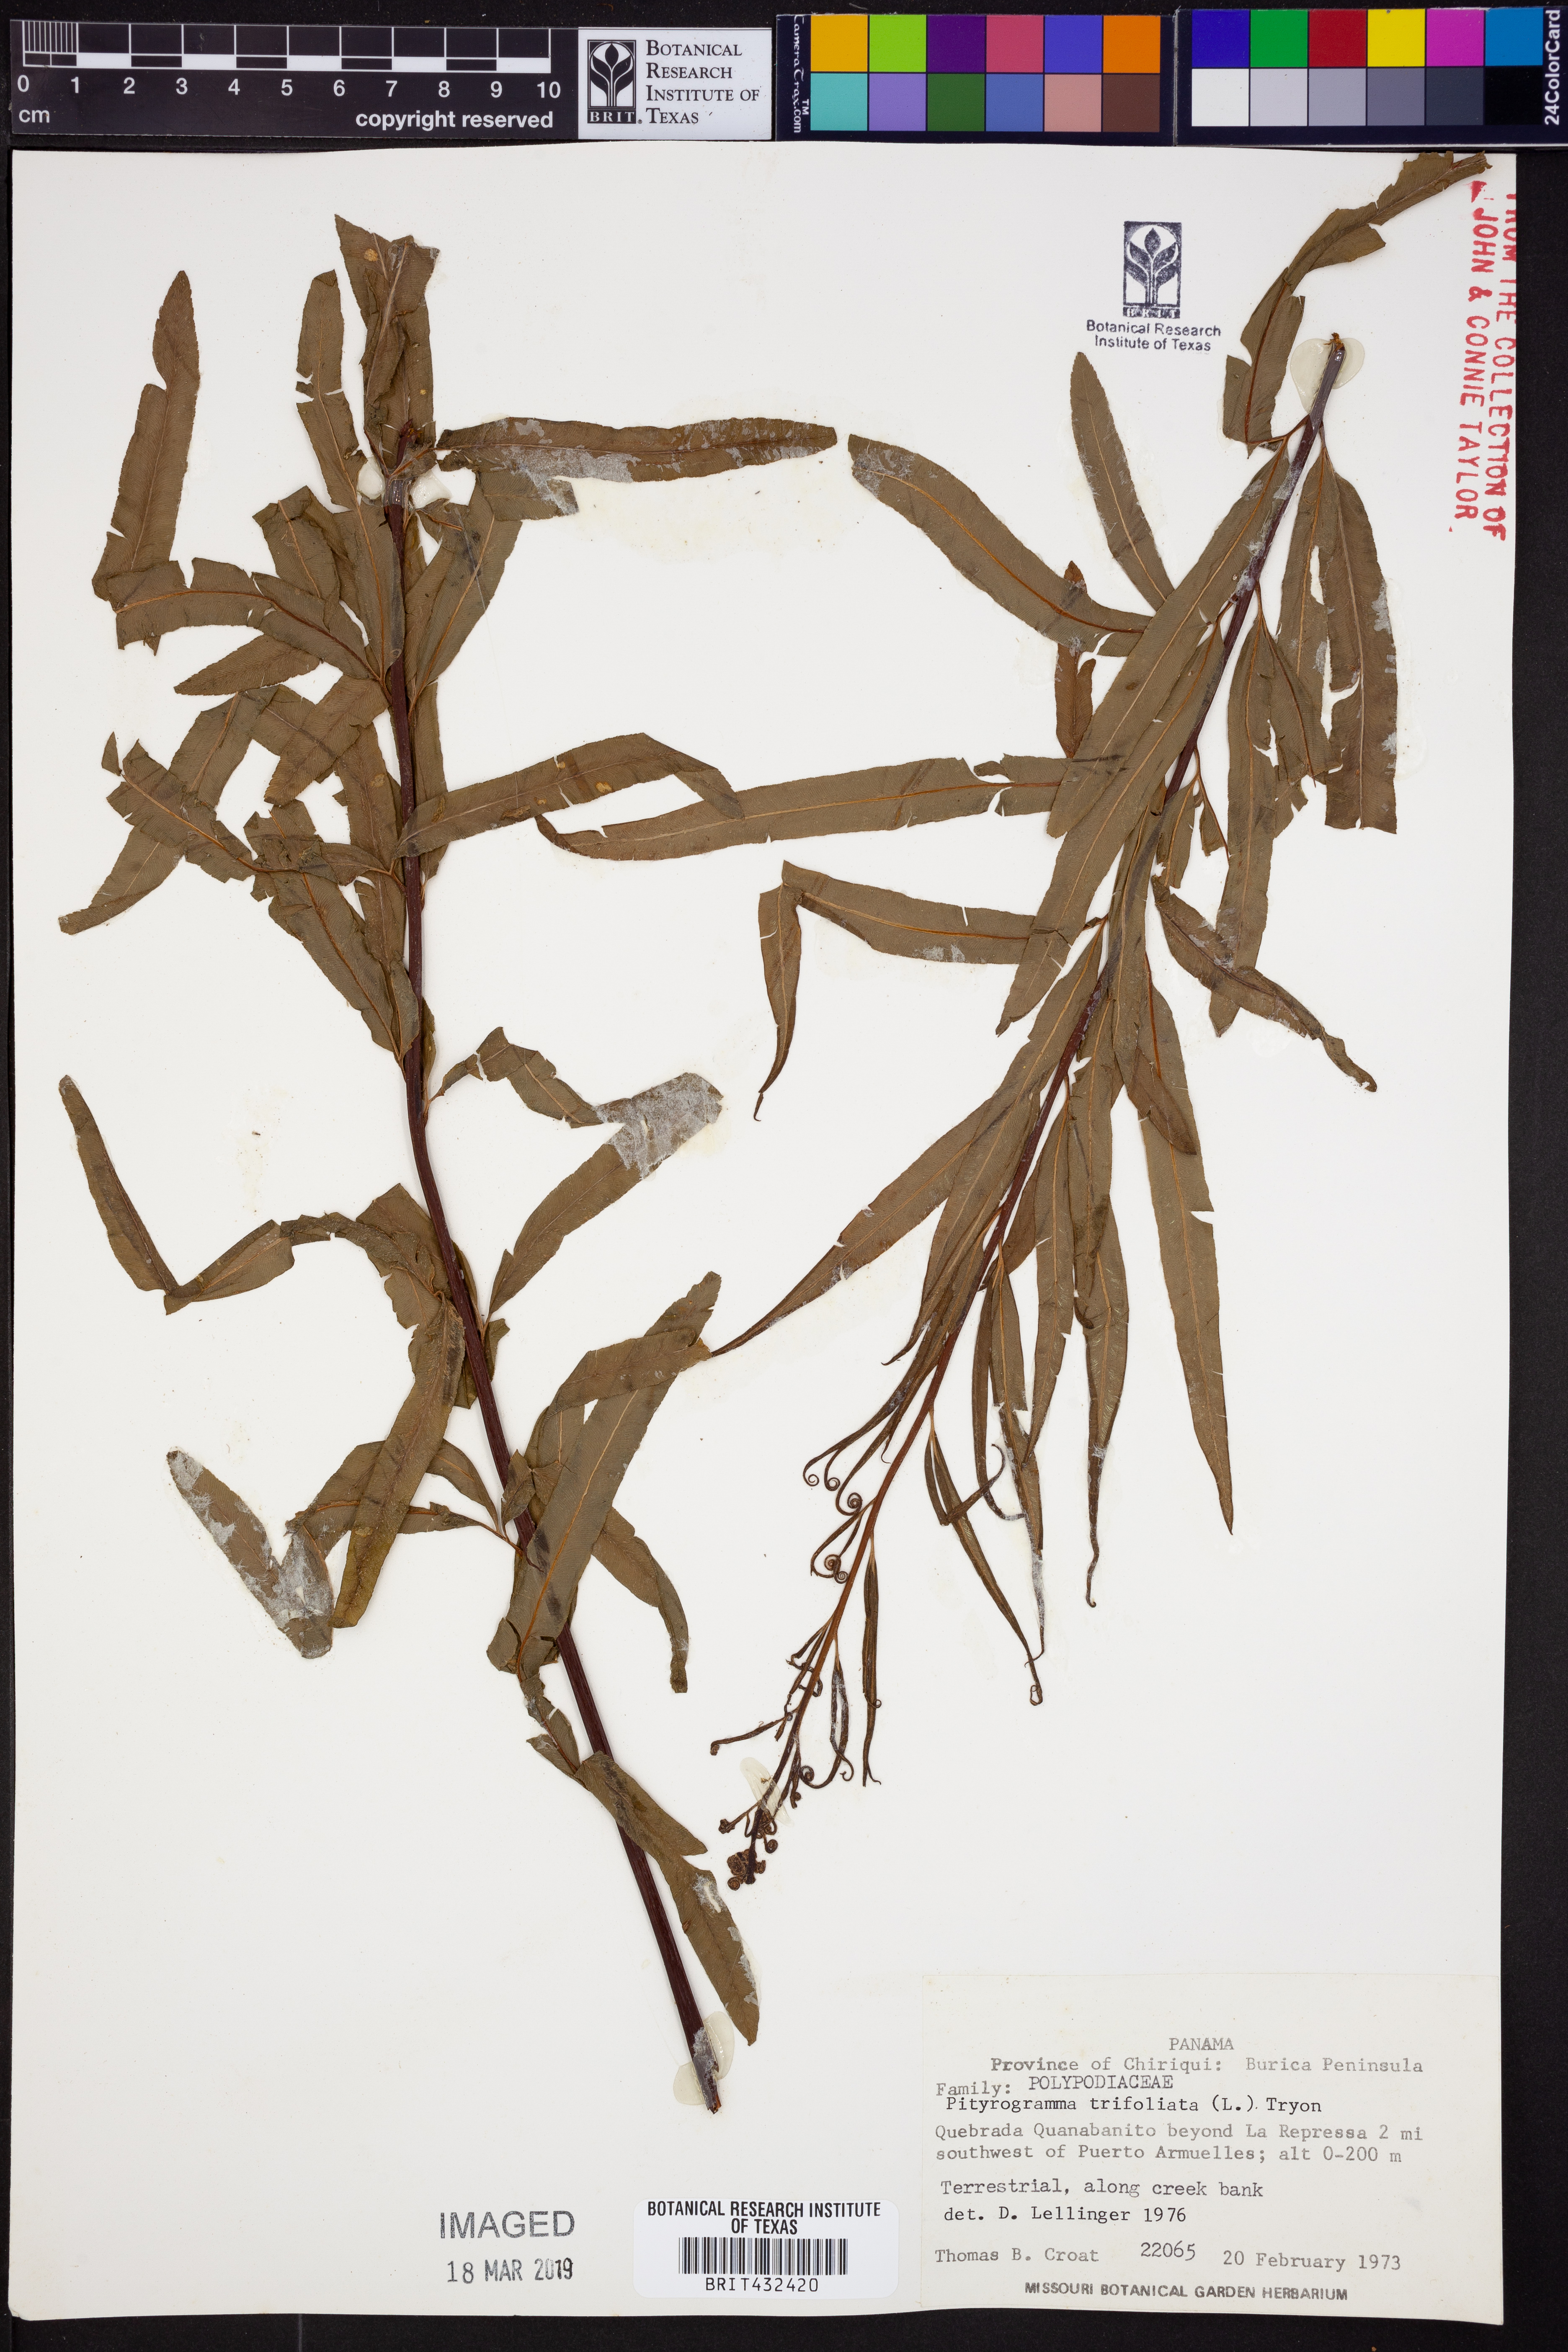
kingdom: Plantae
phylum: Tracheophyta
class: Polypodiopsida
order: Polypodiales
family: Pteridaceae
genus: Pityrogramma
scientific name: Pityrogramma trifoliata
